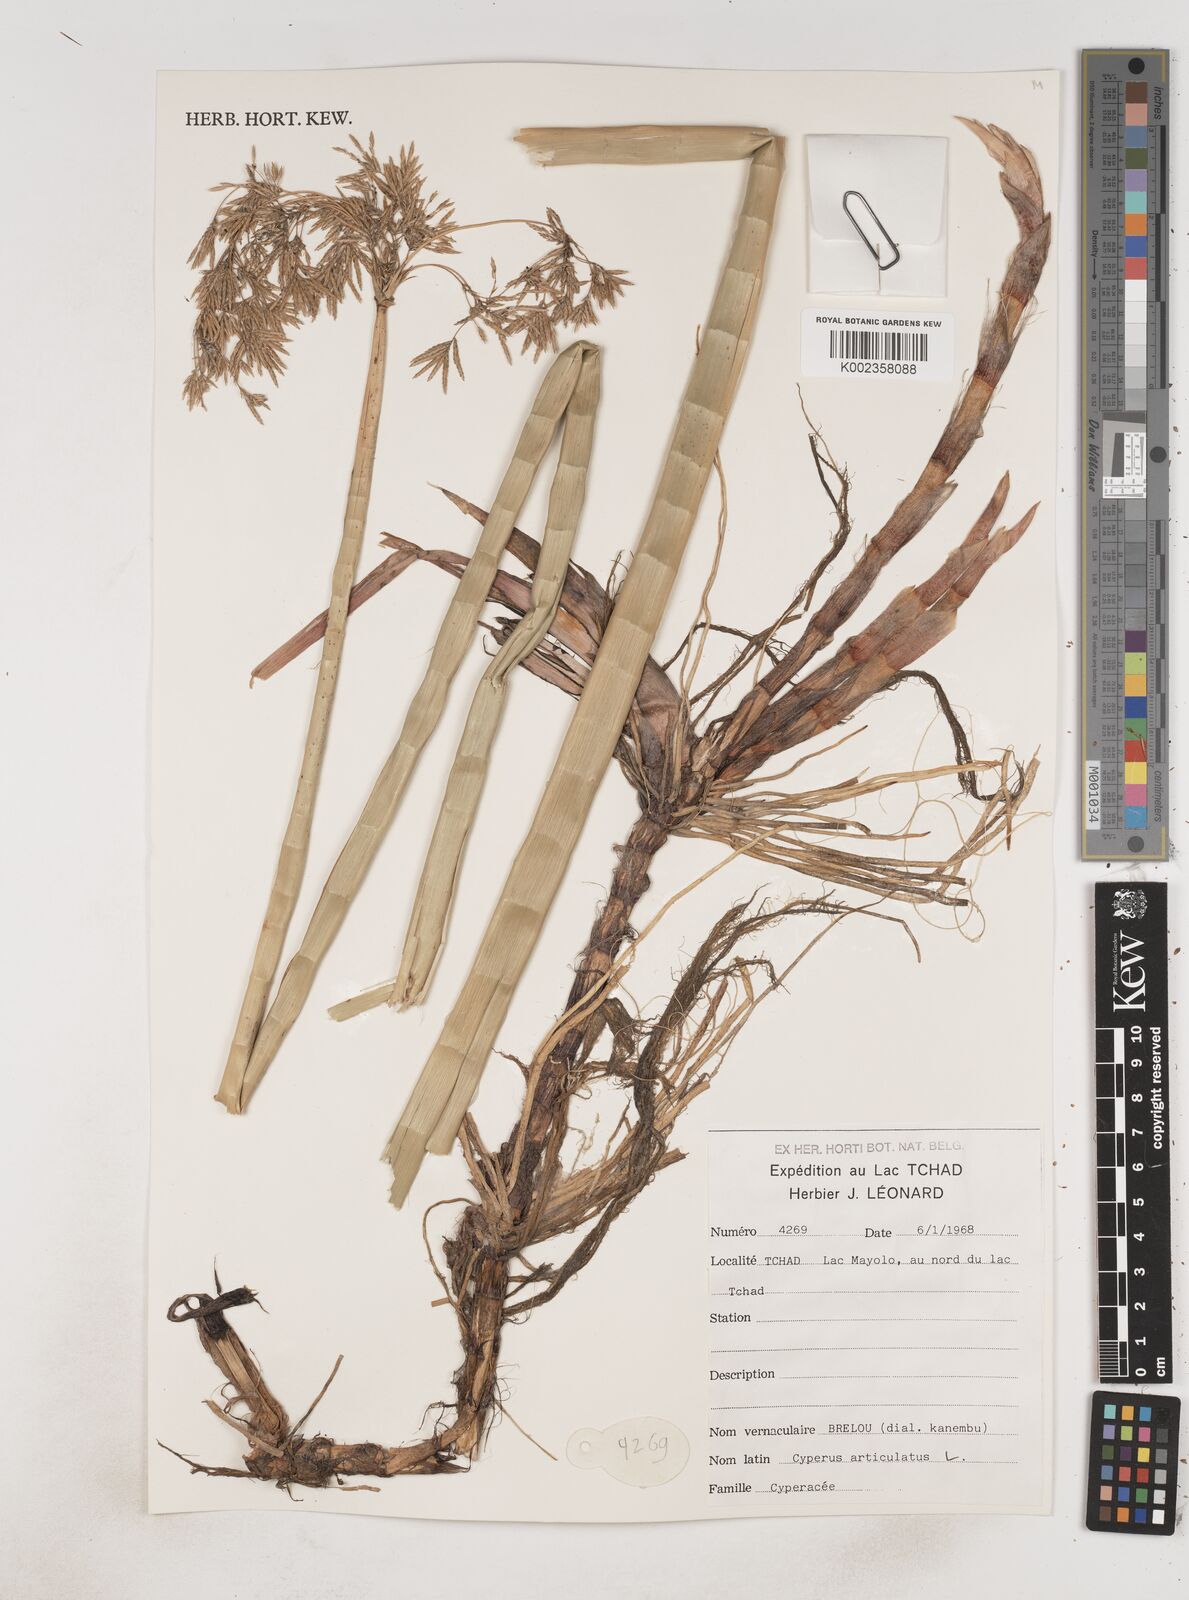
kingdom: Plantae
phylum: Tracheophyta
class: Liliopsida
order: Poales
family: Cyperaceae
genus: Cyperus
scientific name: Cyperus articulatus
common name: Jointed flatsedge
